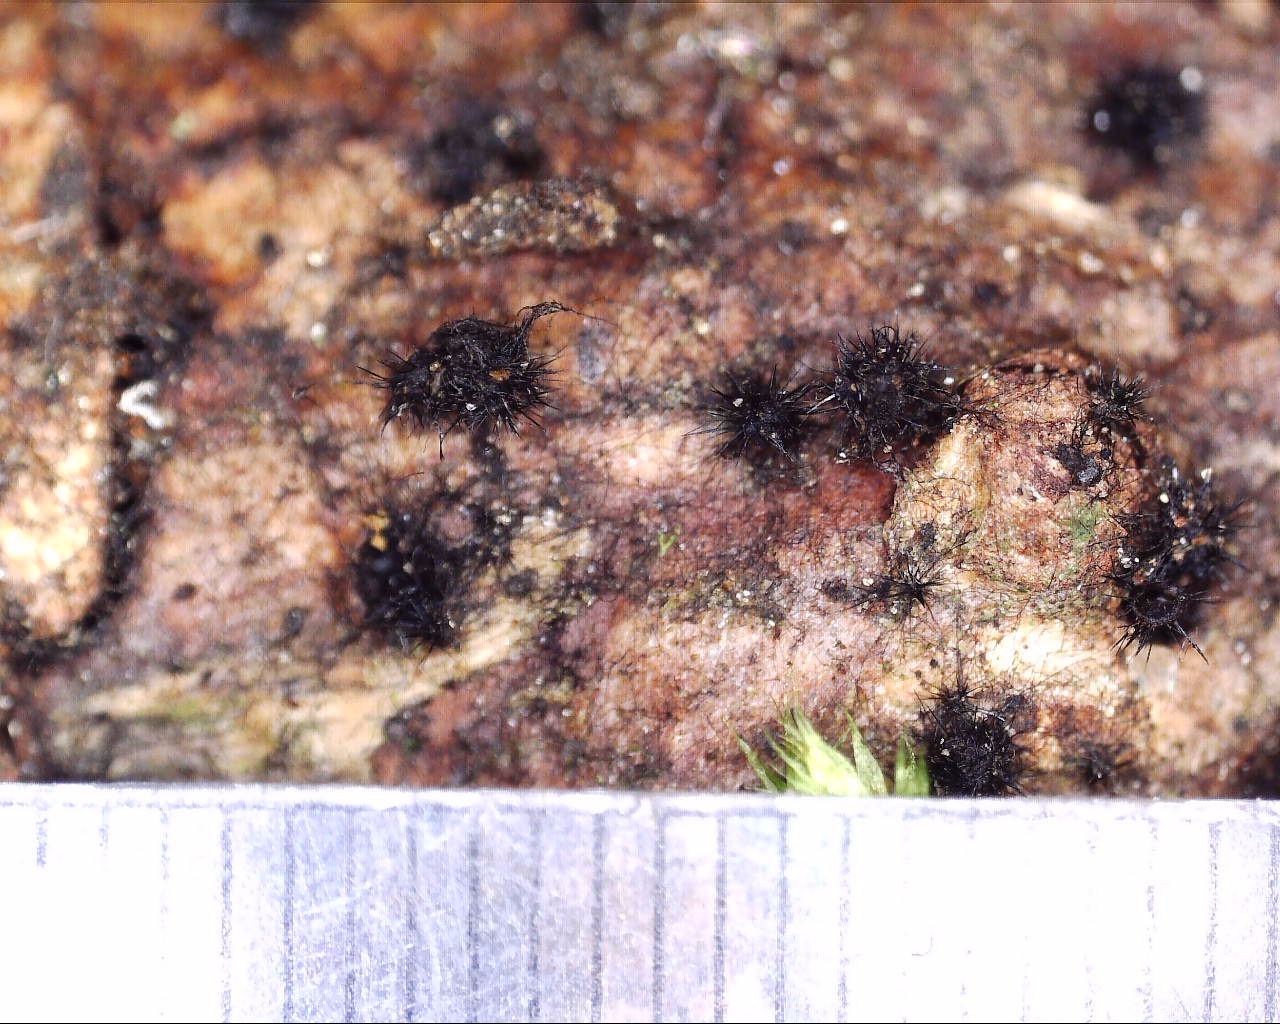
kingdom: Fungi
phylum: Ascomycota
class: Sordariomycetes
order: Sordariales
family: Lasiosphaeridaceae
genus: Lasiosphaeris
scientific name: Lasiosphaeris hirsuta
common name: sorthåret kernesvamp
